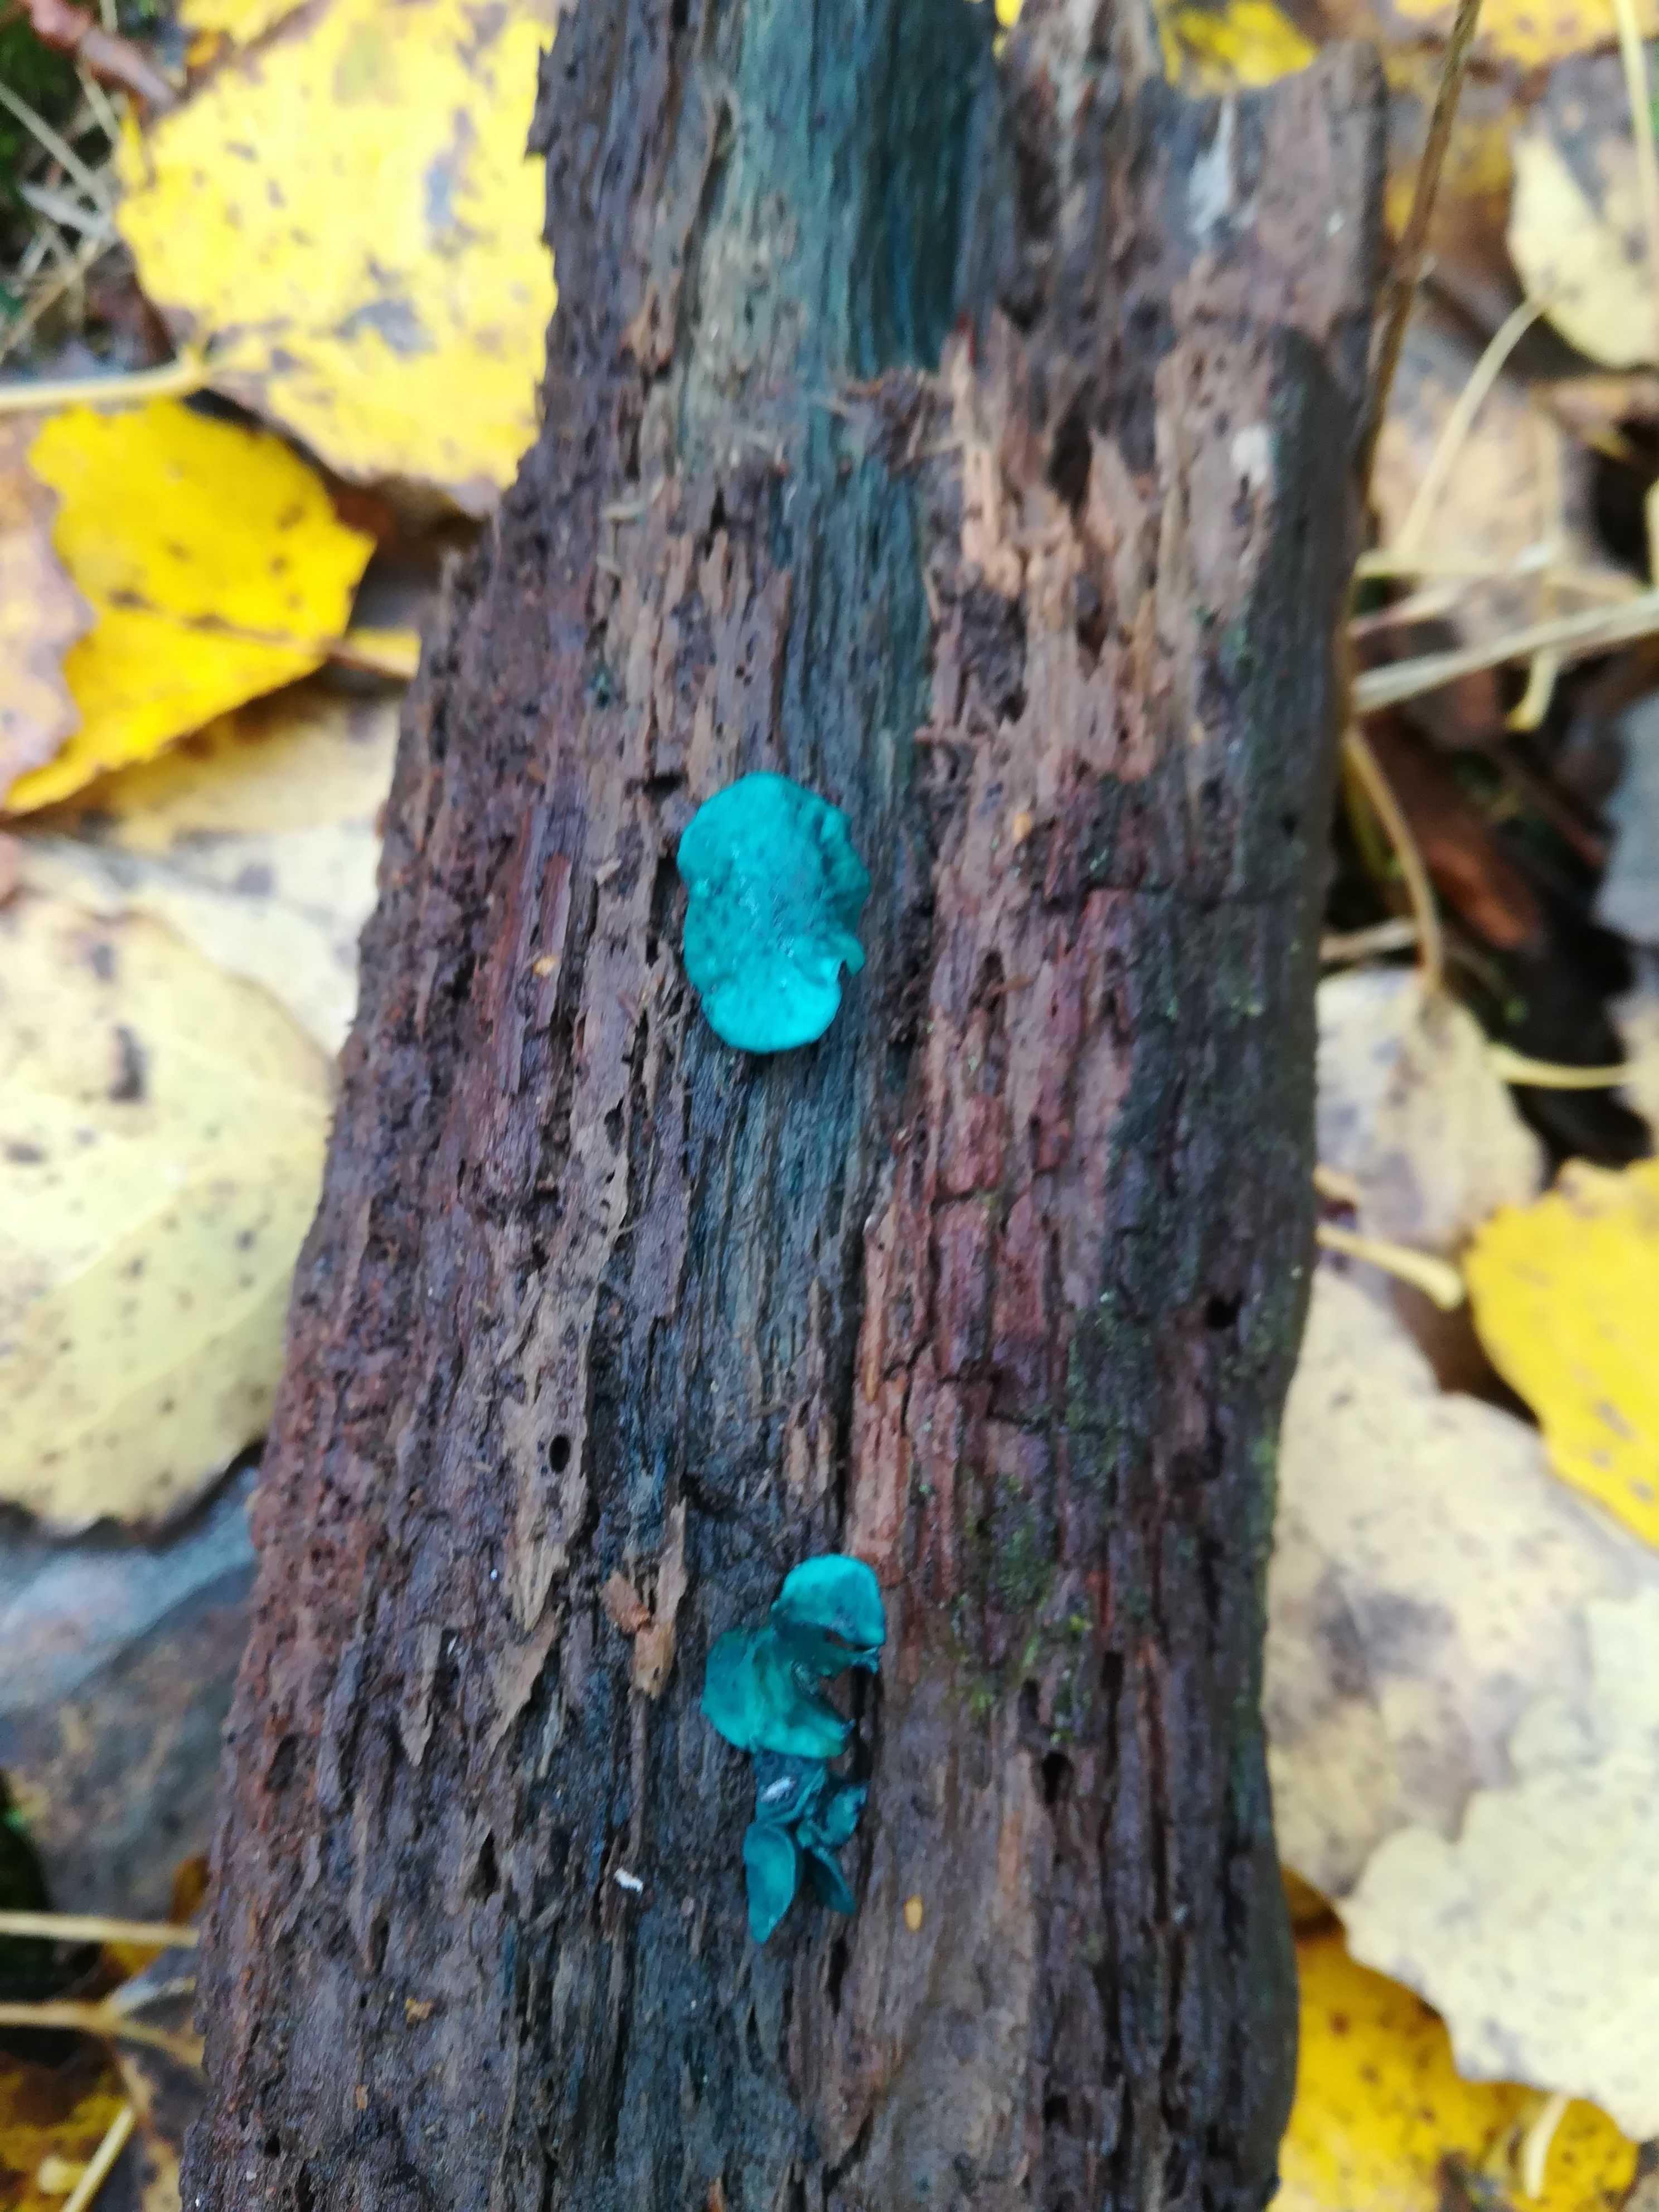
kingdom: Fungi
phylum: Ascomycota
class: Leotiomycetes
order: Helotiales
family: Chlorociboriaceae
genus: Chlorociboria
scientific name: Chlorociboria aeruginascens
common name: almindelig grønskive
